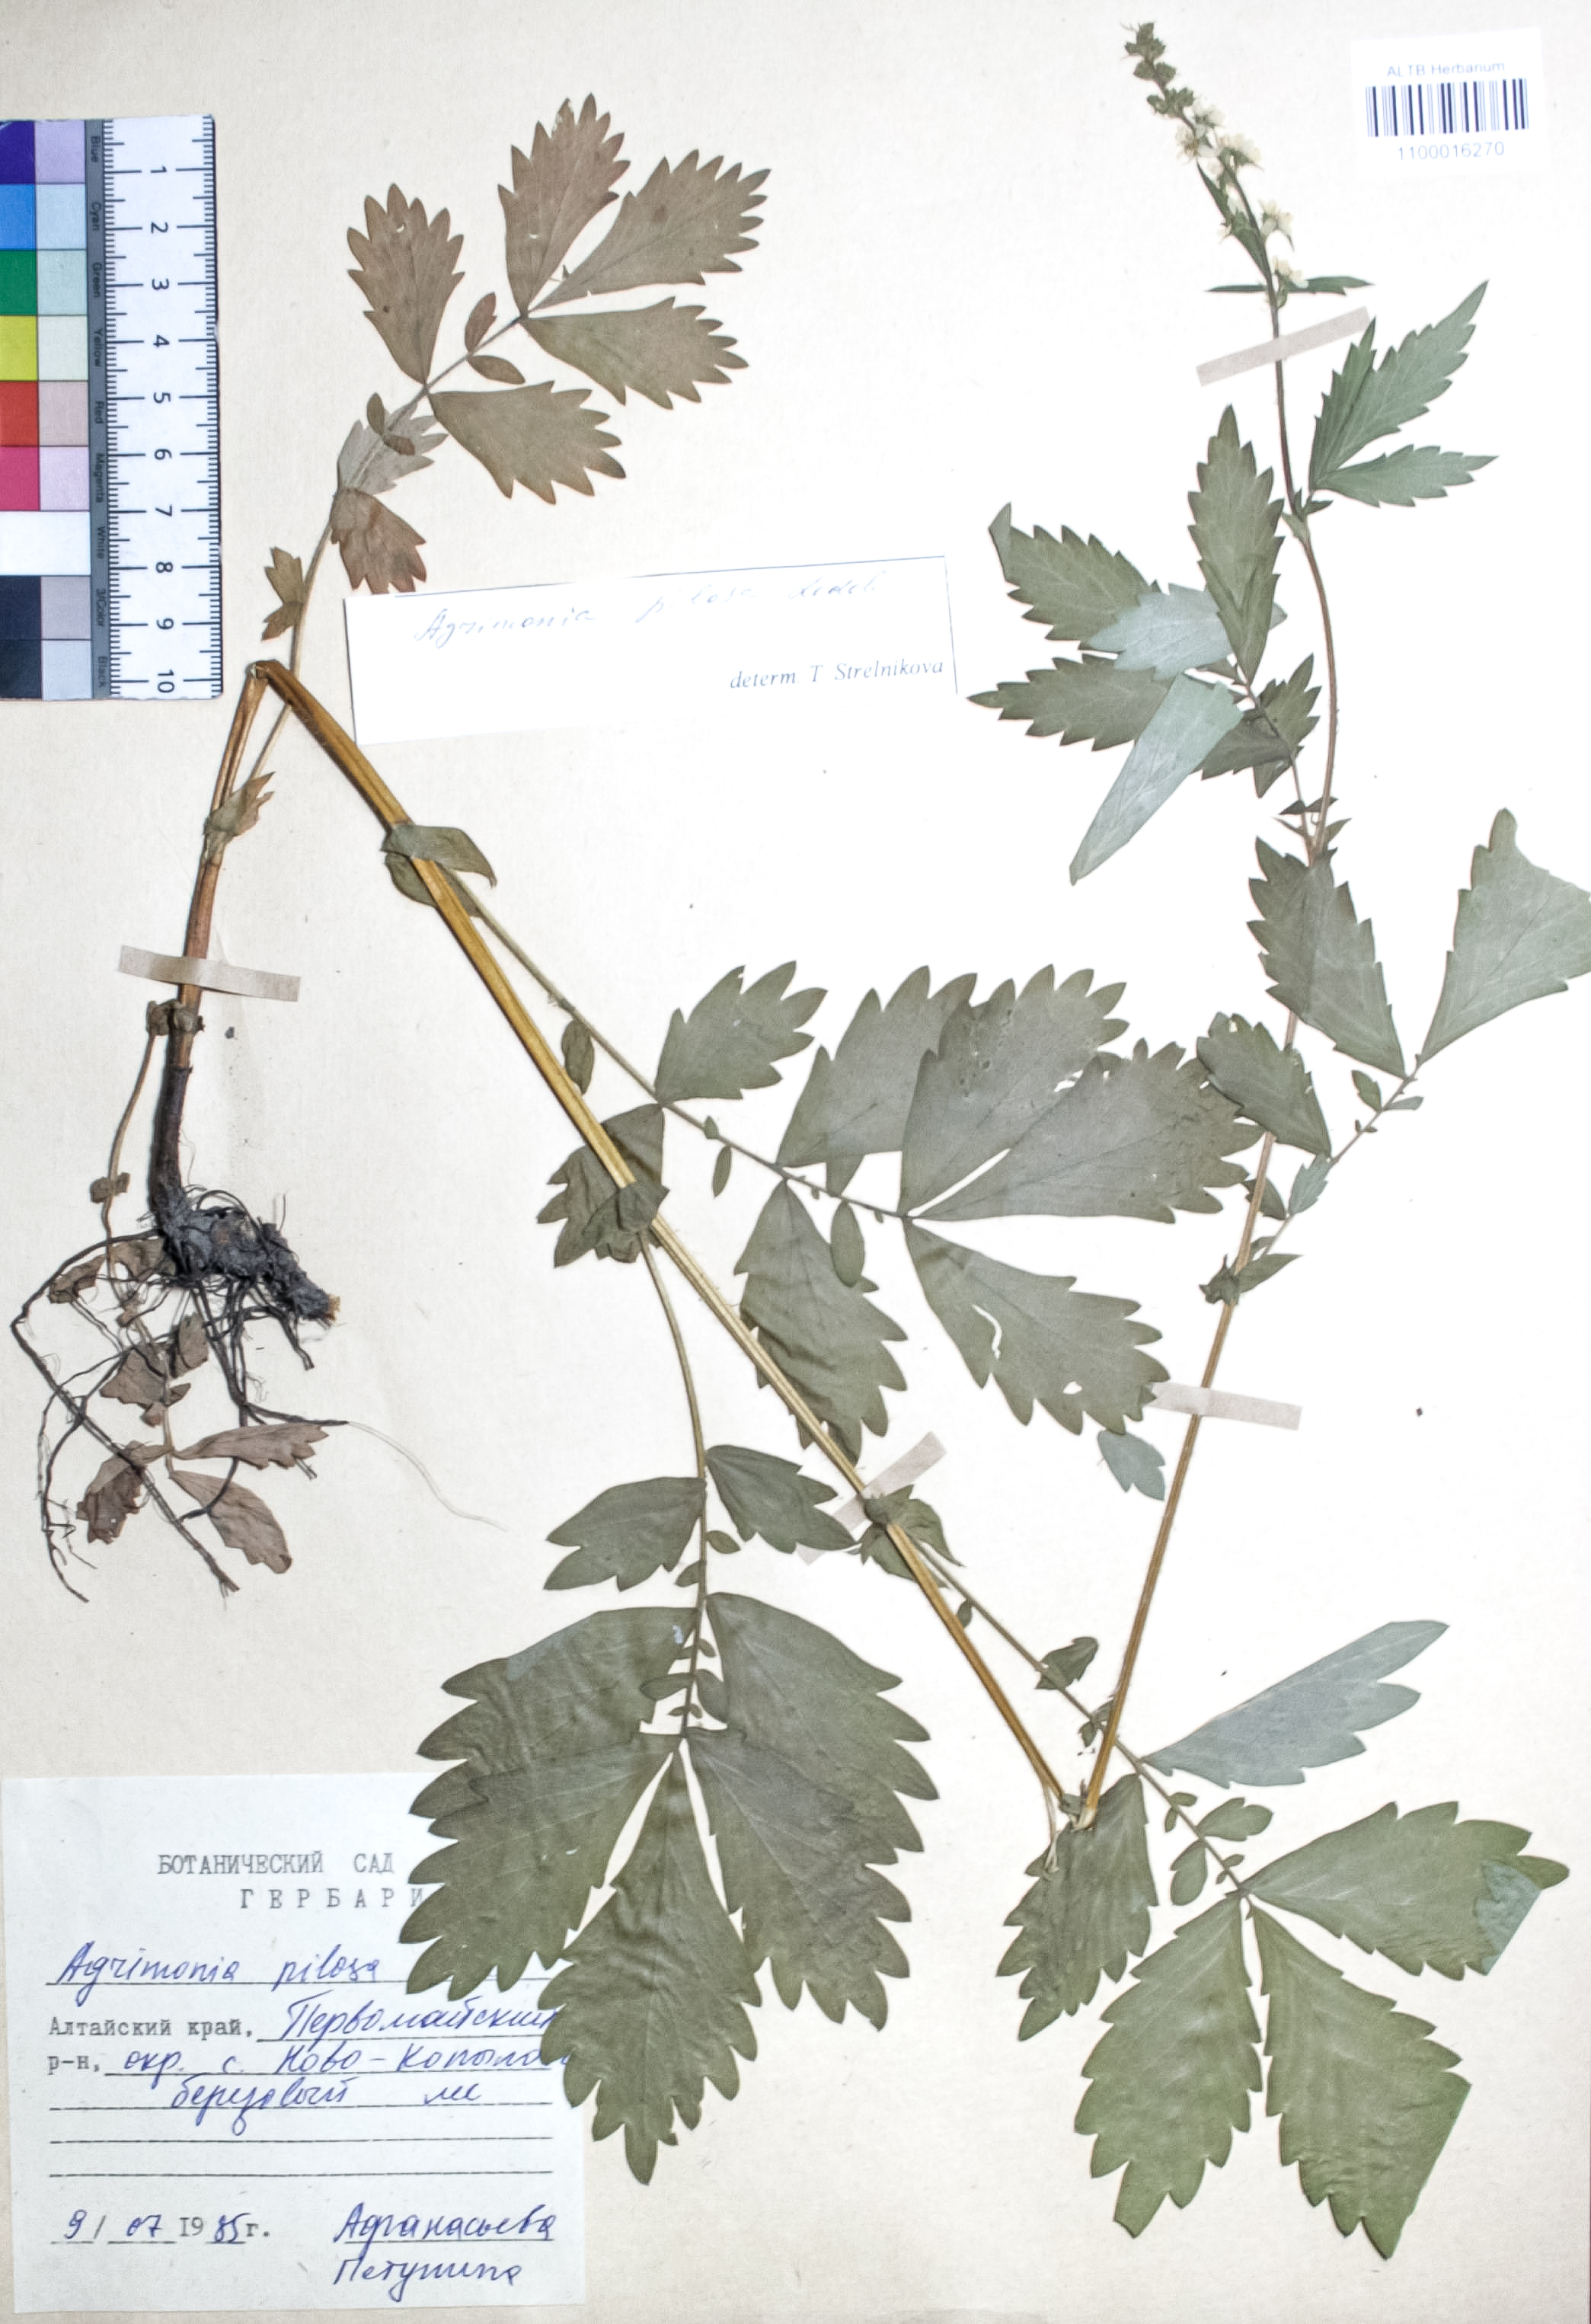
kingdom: Plantae
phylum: Tracheophyta
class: Magnoliopsida
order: Rosales
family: Rosaceae
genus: Agrimonia
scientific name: Agrimonia pilosa
